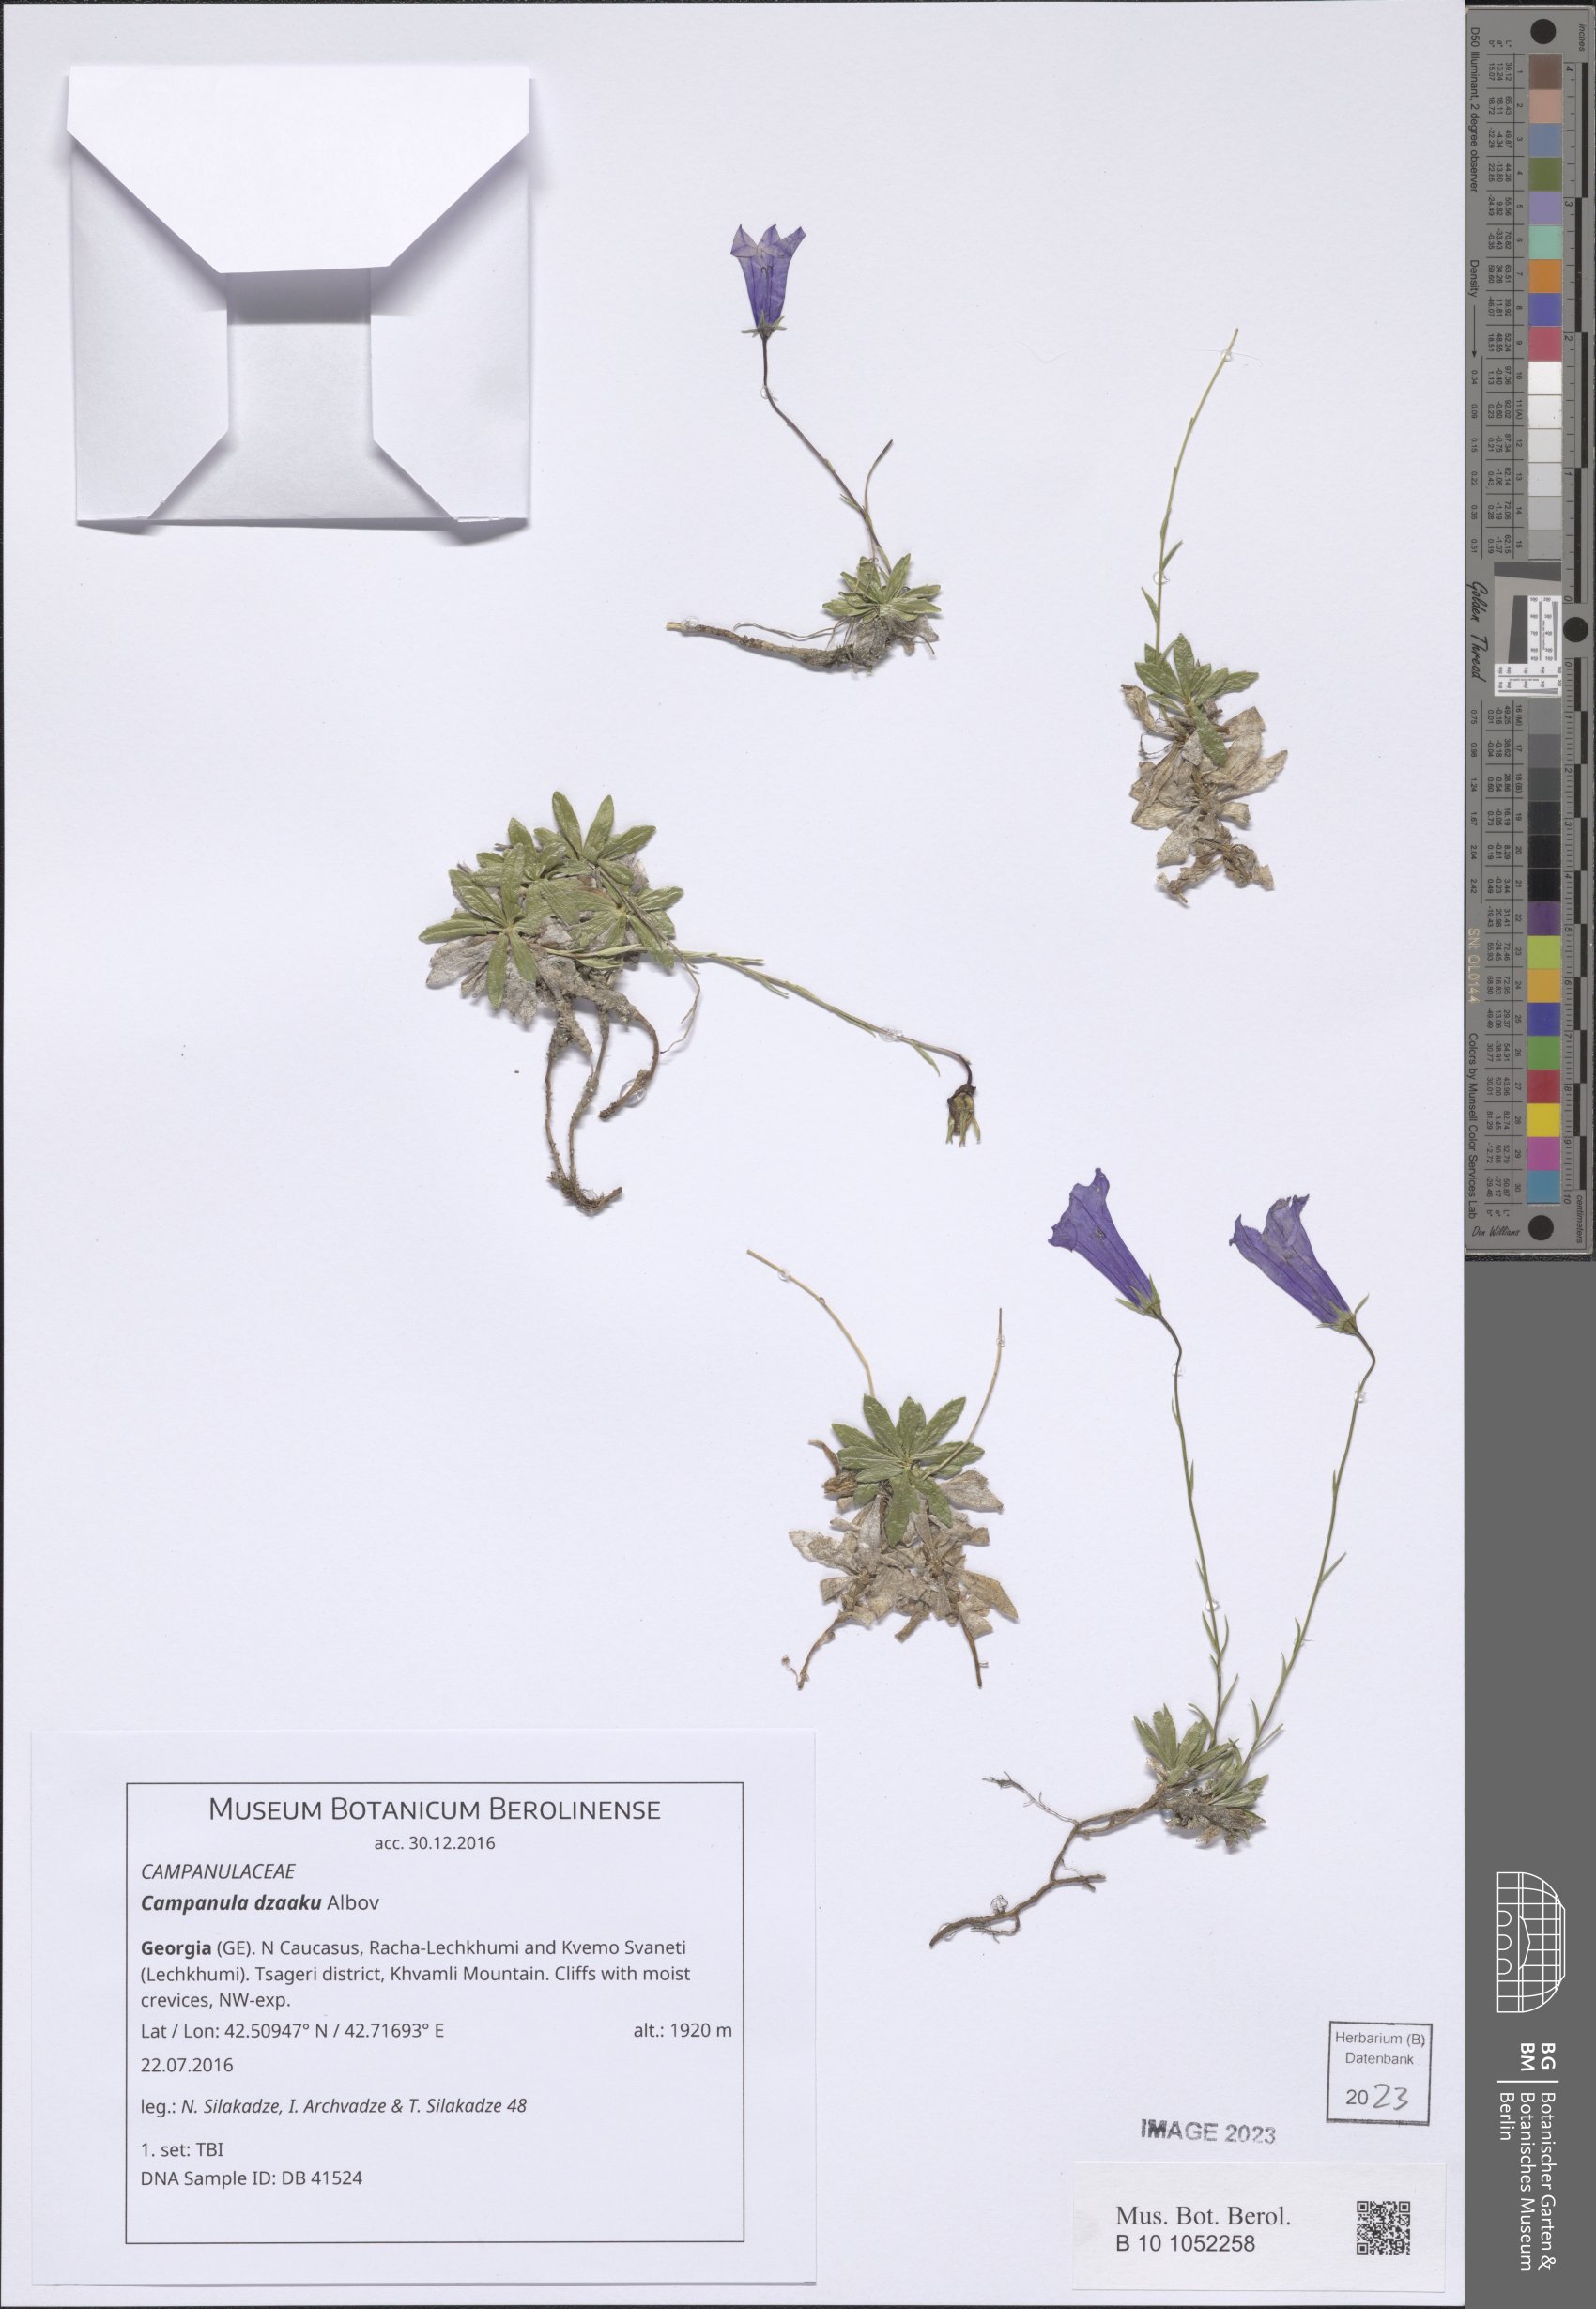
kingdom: Plantae
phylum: Tracheophyta
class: Magnoliopsida
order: Asterales
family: Campanulaceae
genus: Campanula
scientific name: Campanula dzaaku
